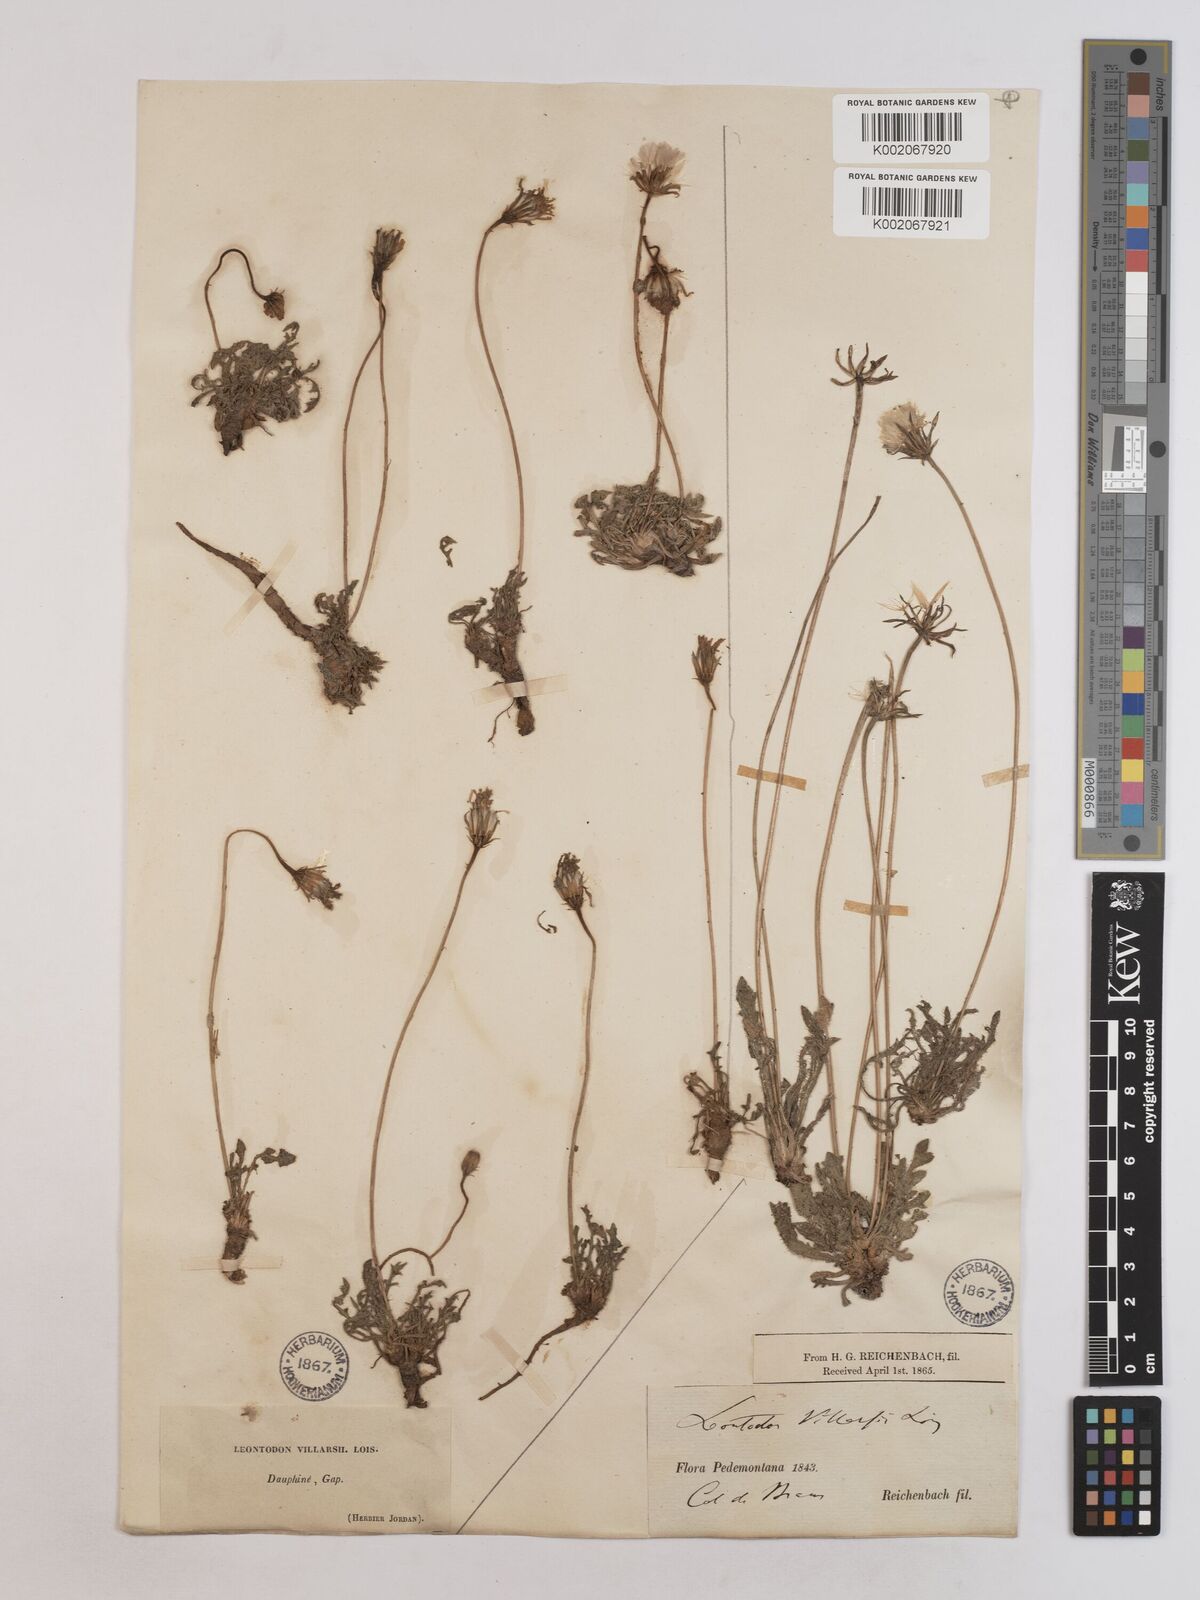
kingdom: Plantae
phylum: Tracheophyta
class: Magnoliopsida
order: Asterales
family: Asteraceae
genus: Leontodon
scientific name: Leontodon hirtus
